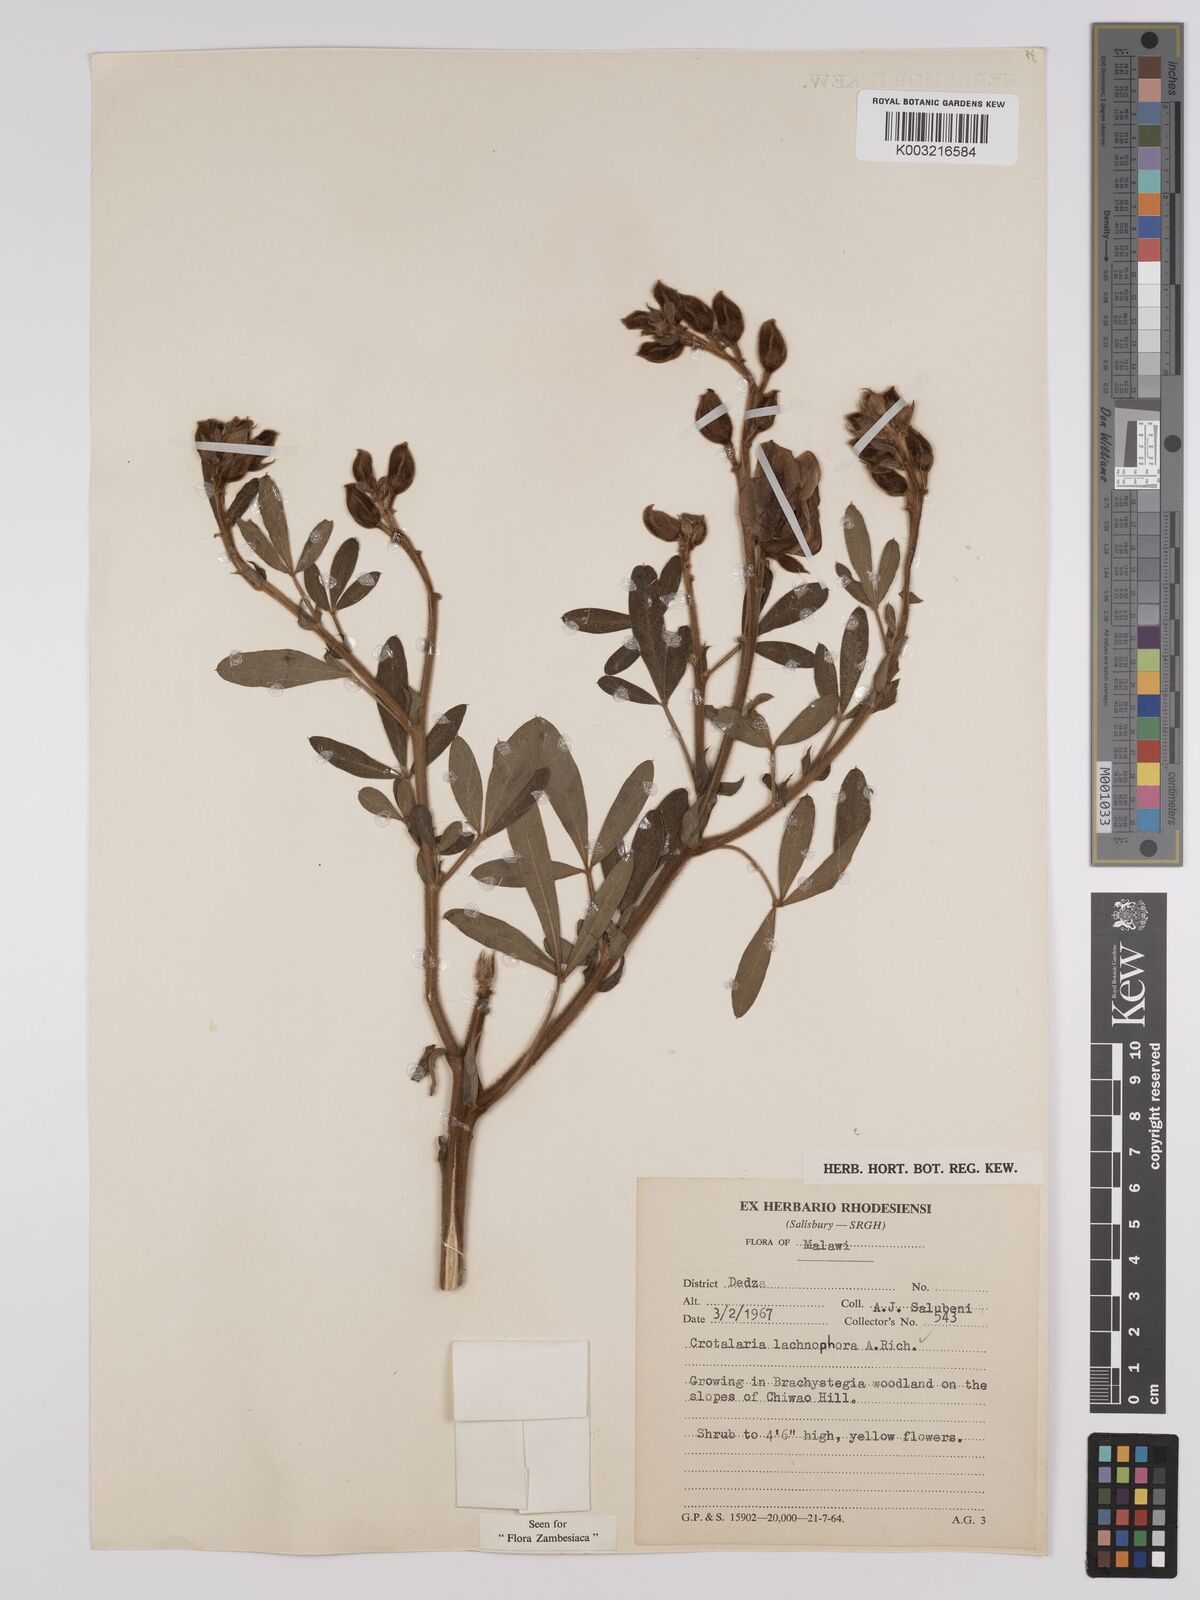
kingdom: Plantae
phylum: Tracheophyta
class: Magnoliopsida
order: Fabales
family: Fabaceae
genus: Crotalaria
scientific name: Crotalaria lachnophora
